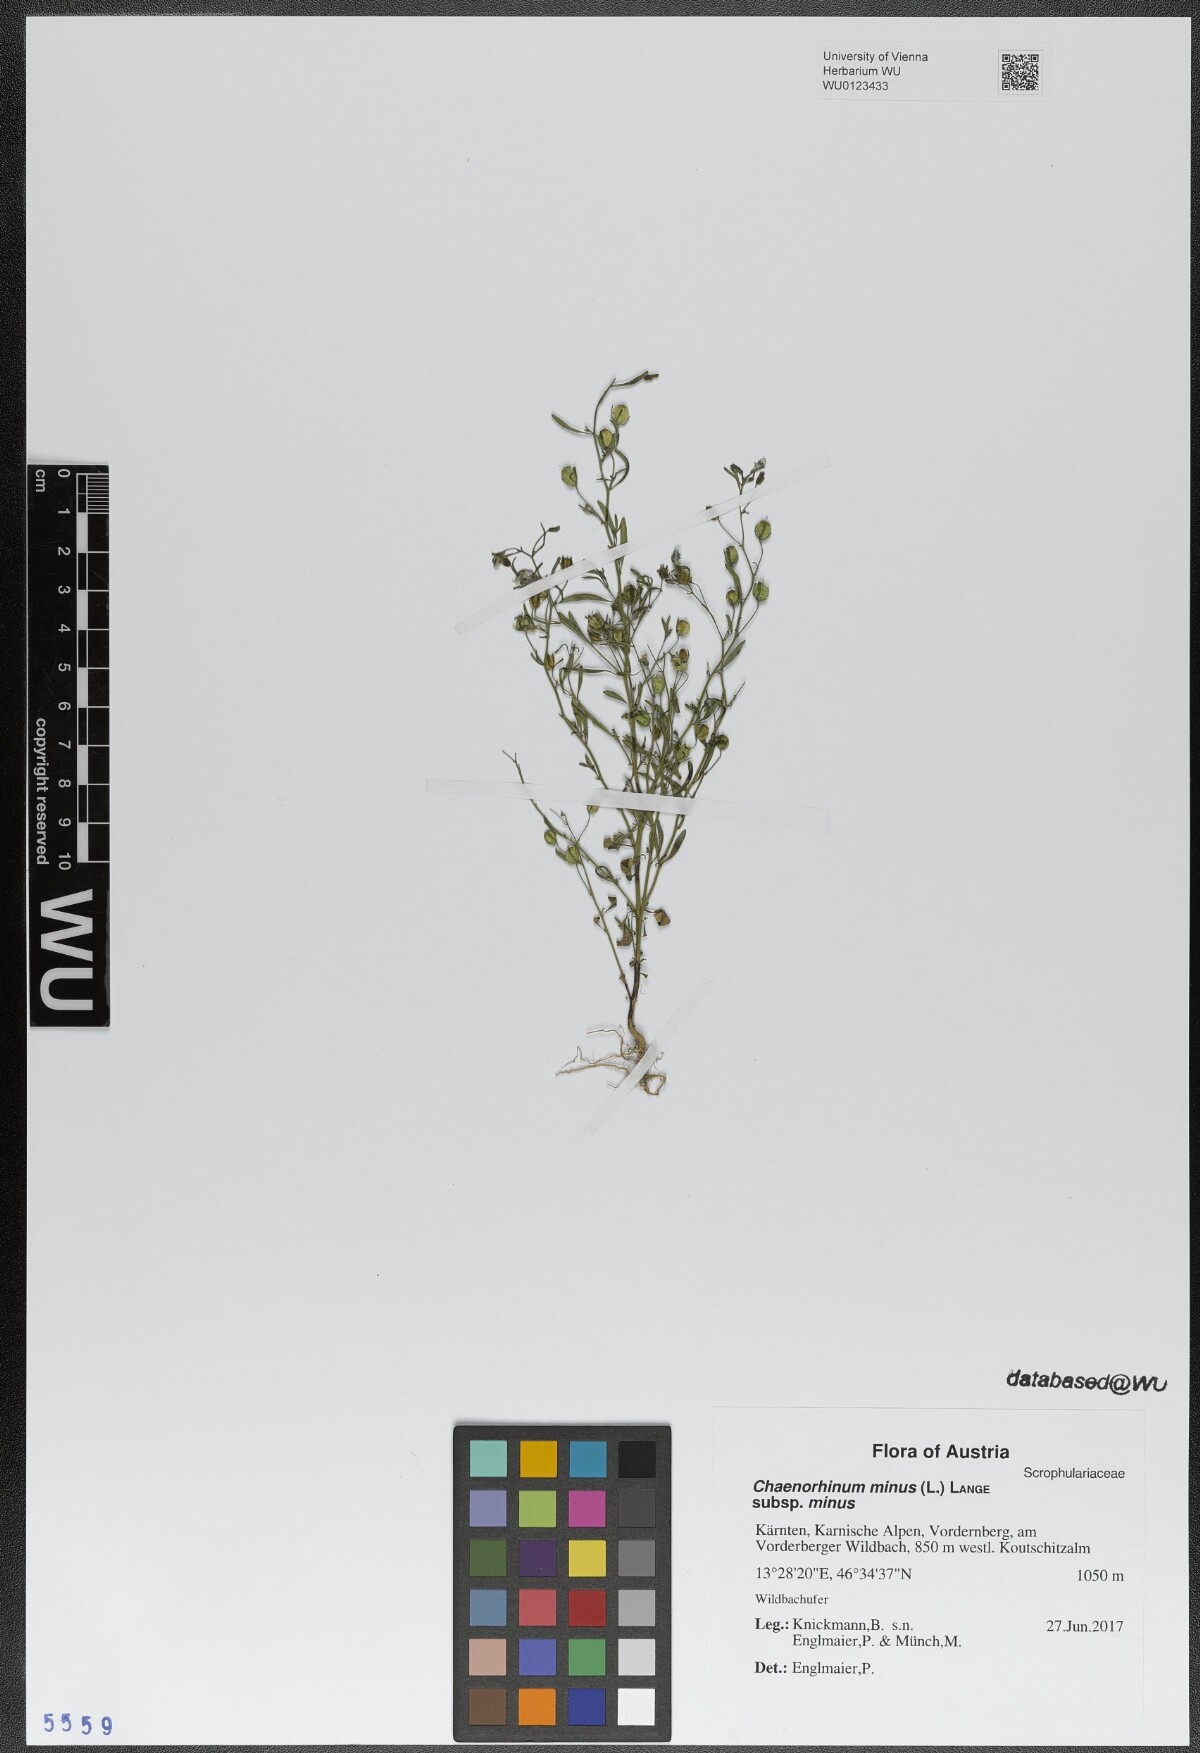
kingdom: Plantae
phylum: Tracheophyta
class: Magnoliopsida
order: Lamiales
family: Plantaginaceae
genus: Chaenorhinum
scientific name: Chaenorhinum minus
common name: Dwarf snapdragon
